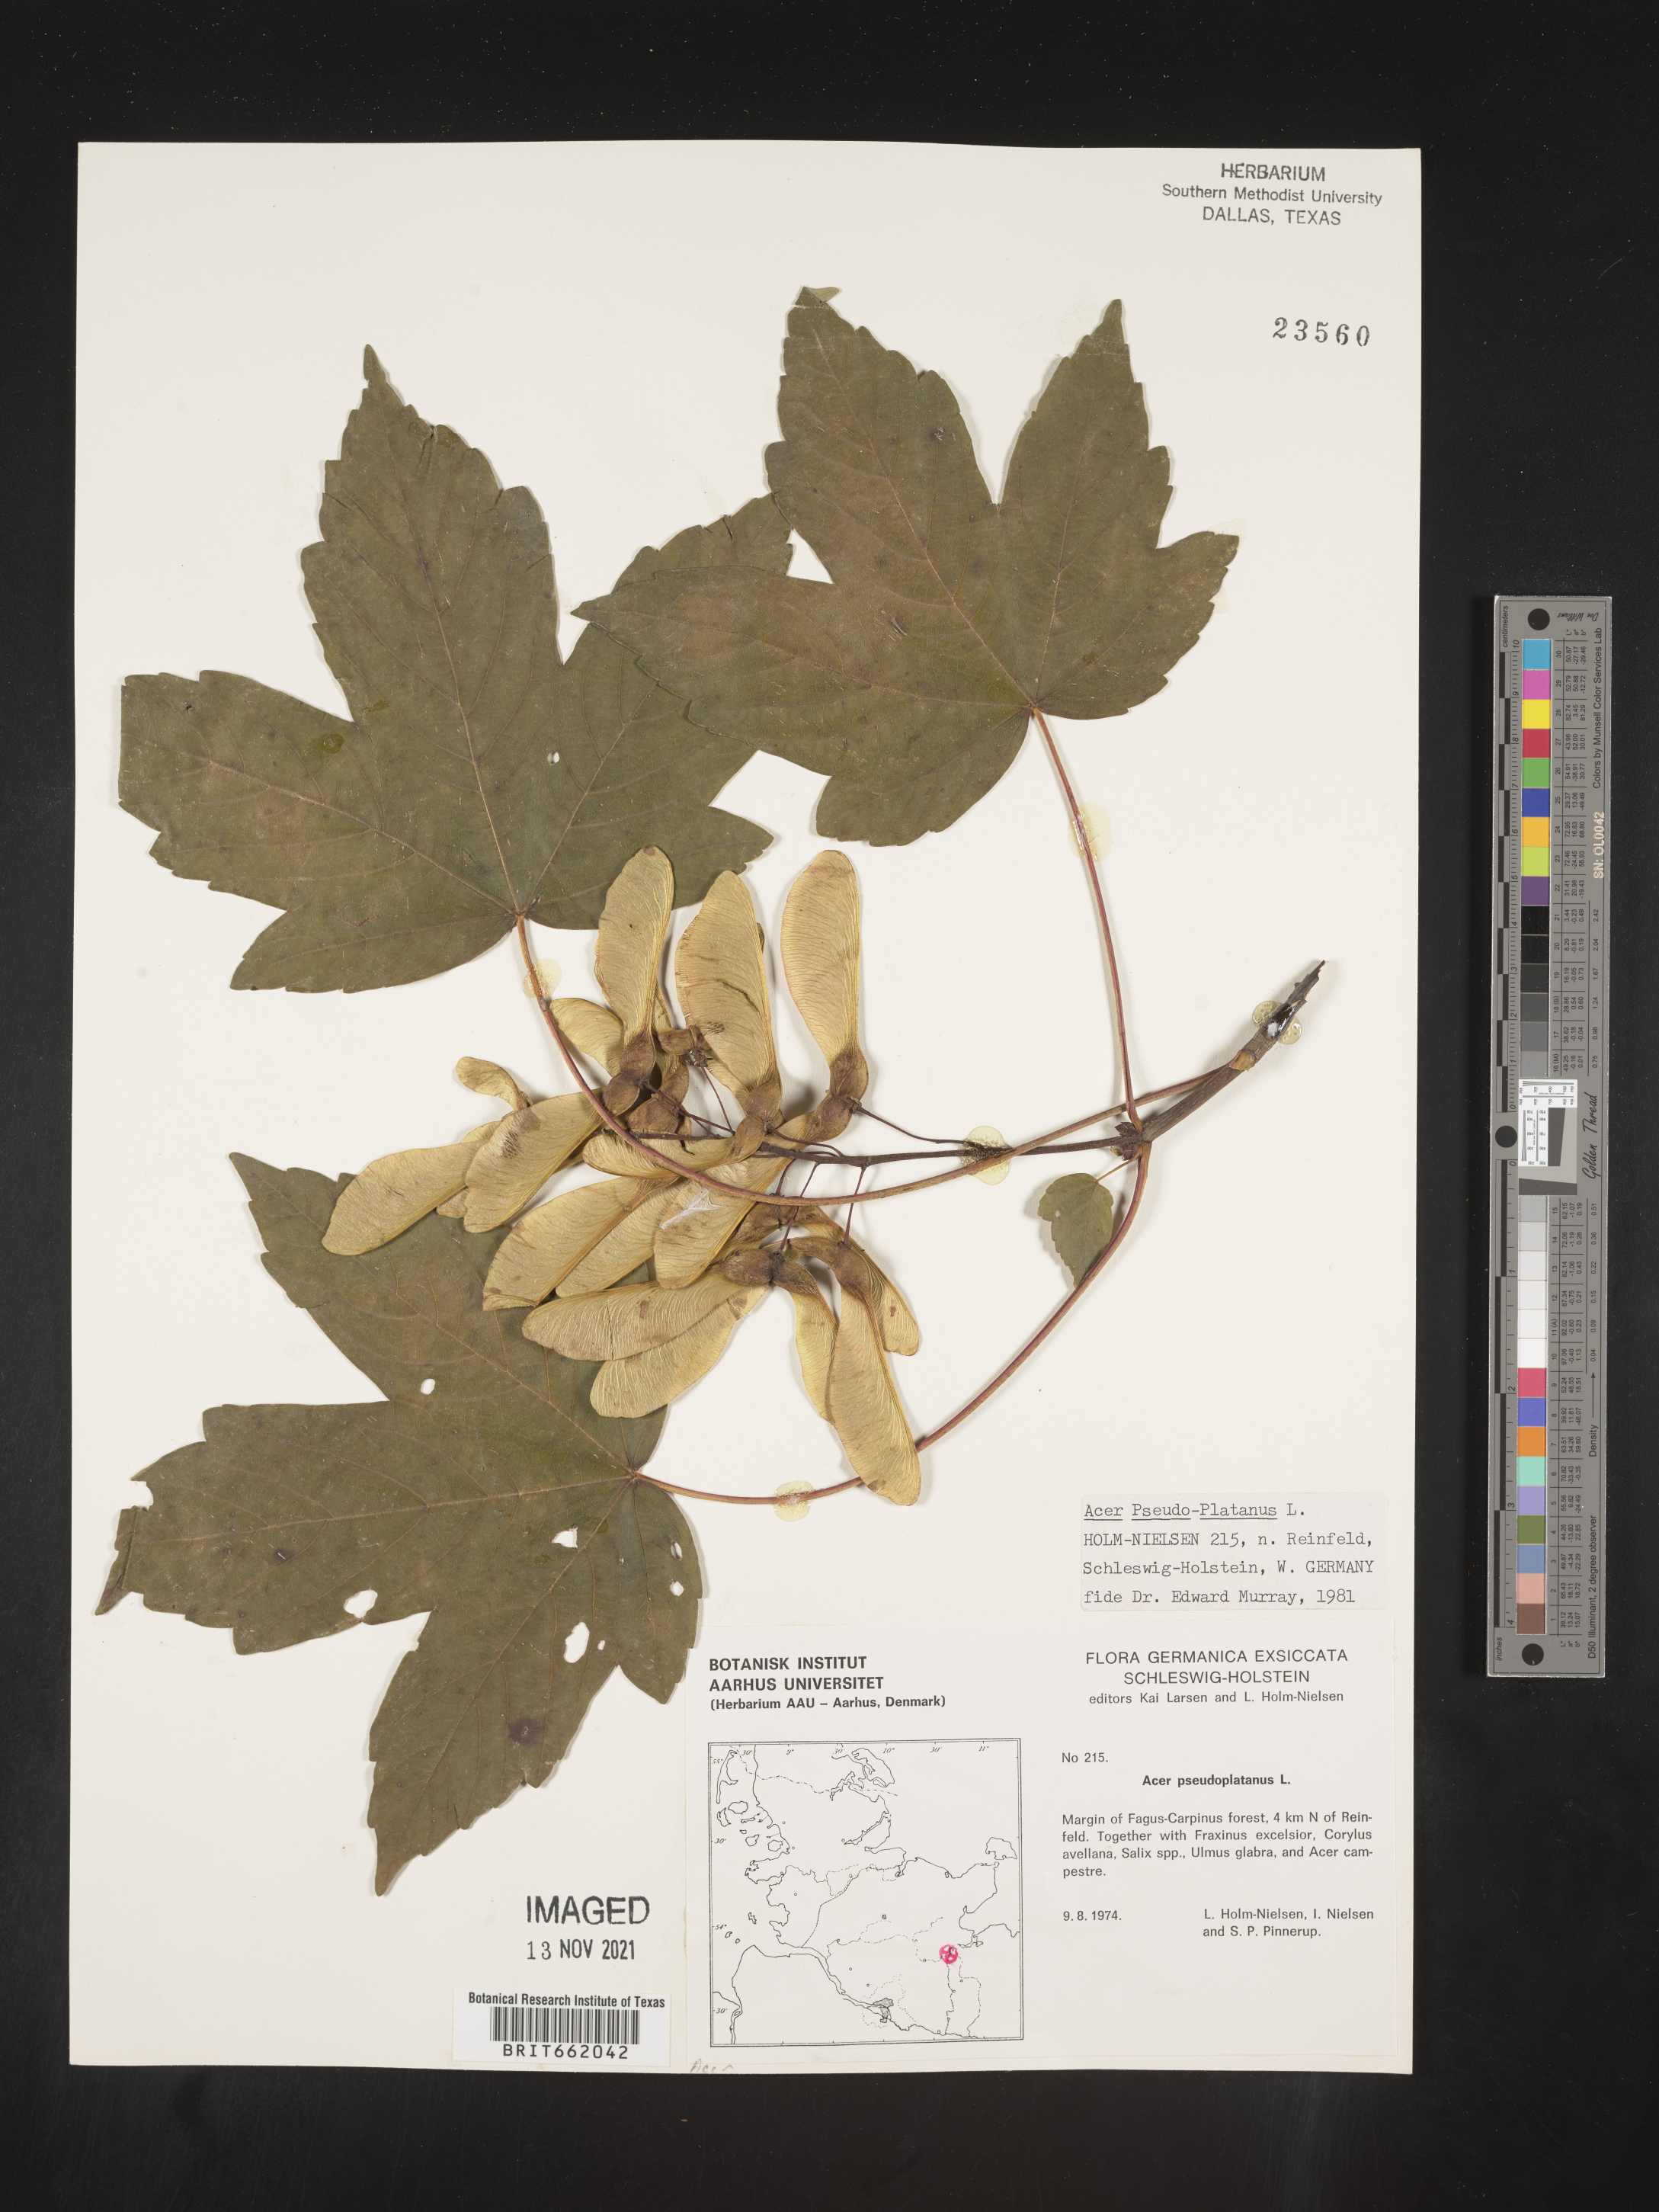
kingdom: Plantae
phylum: Tracheophyta
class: Magnoliopsida
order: Sapindales
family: Sapindaceae
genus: Acer
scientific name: Acer
